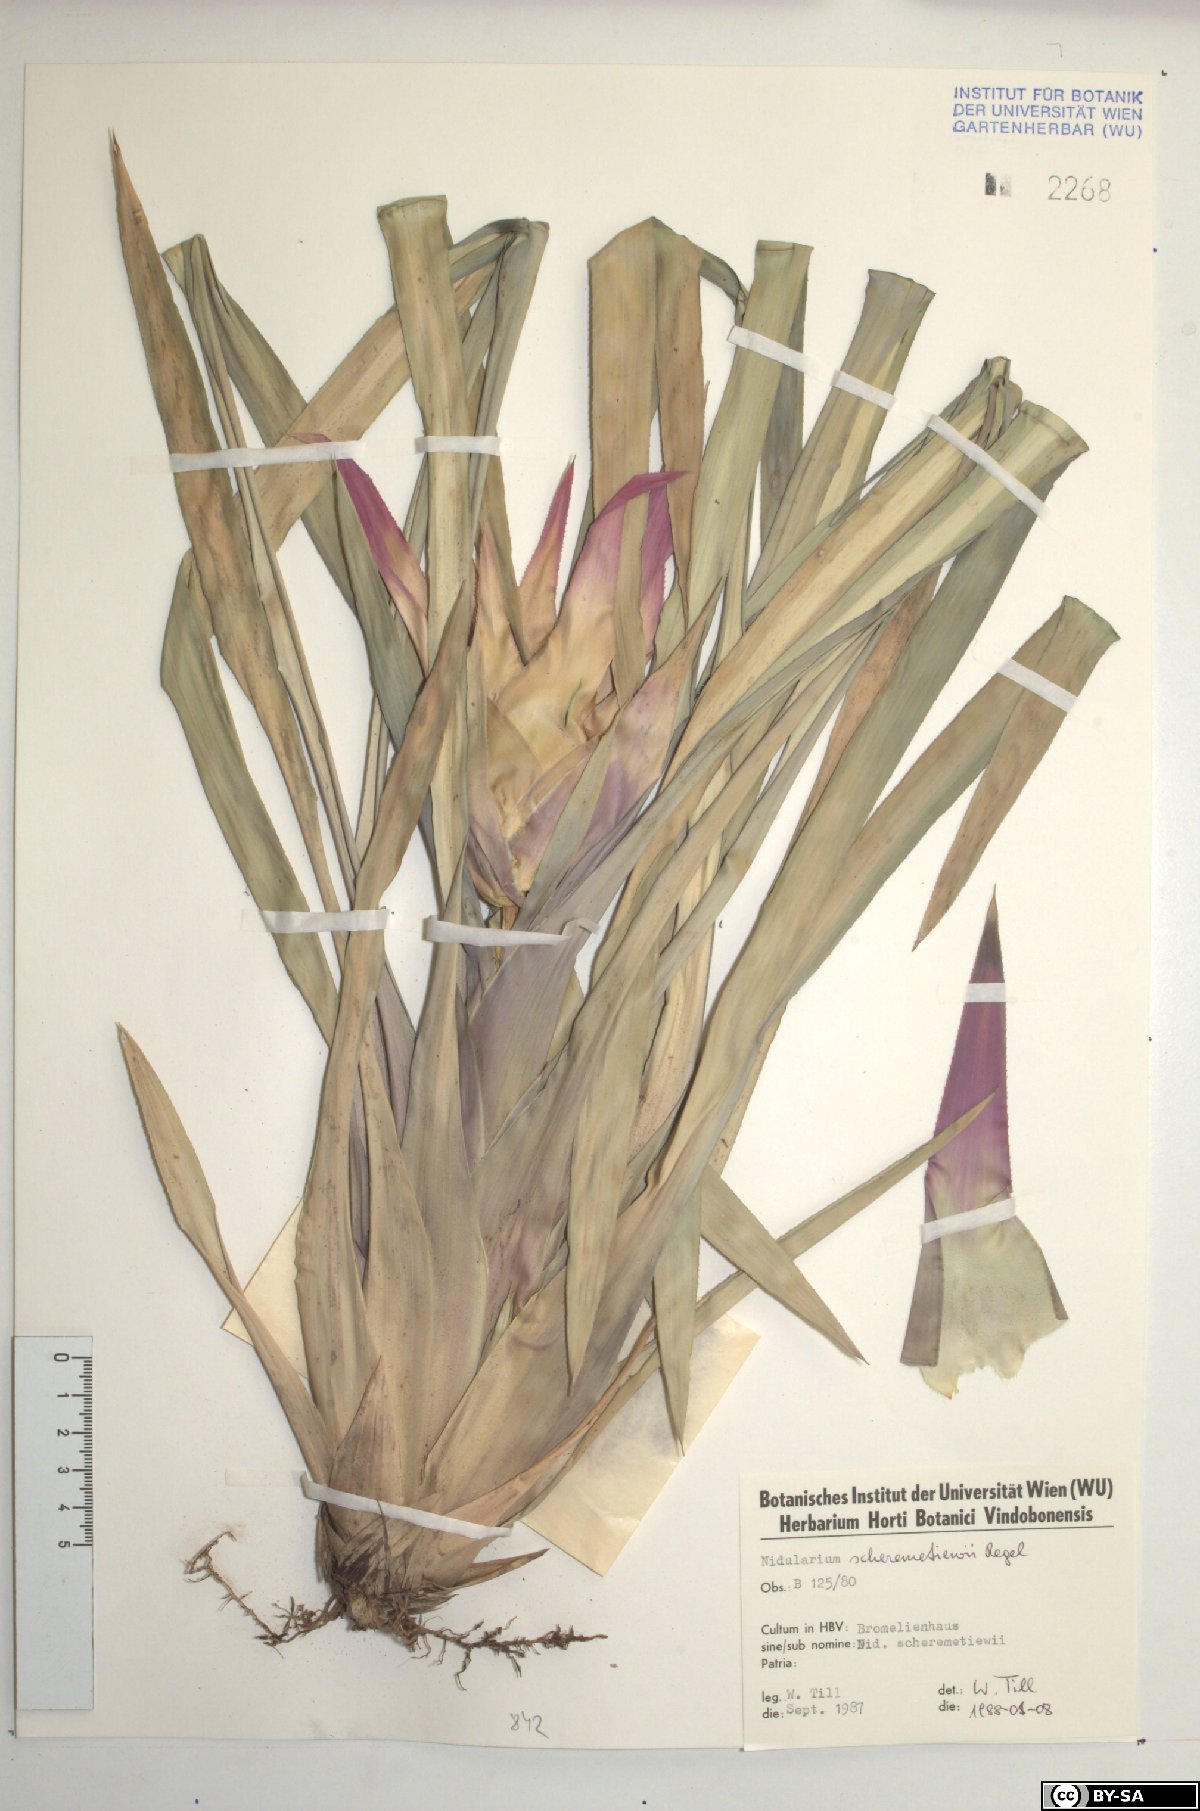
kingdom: Plantae
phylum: Tracheophyta
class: Liliopsida
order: Poales
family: Bromeliaceae
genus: Nidularium
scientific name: Nidularium scheremetiewii
